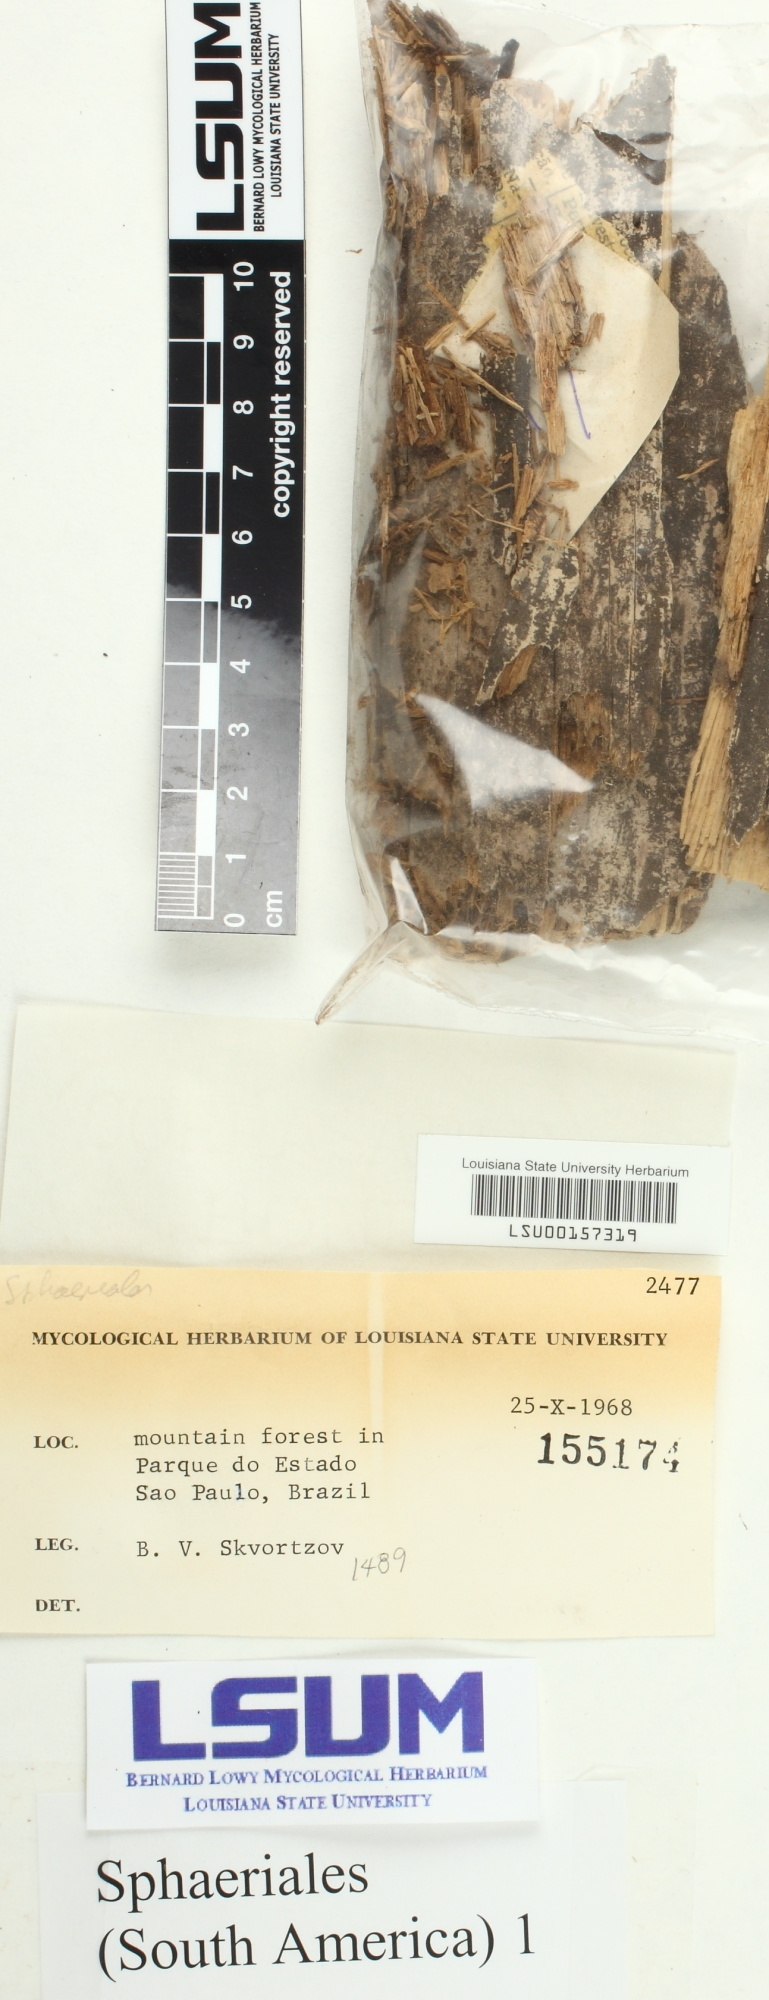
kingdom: Fungi
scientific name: Fungi
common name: Fungi
